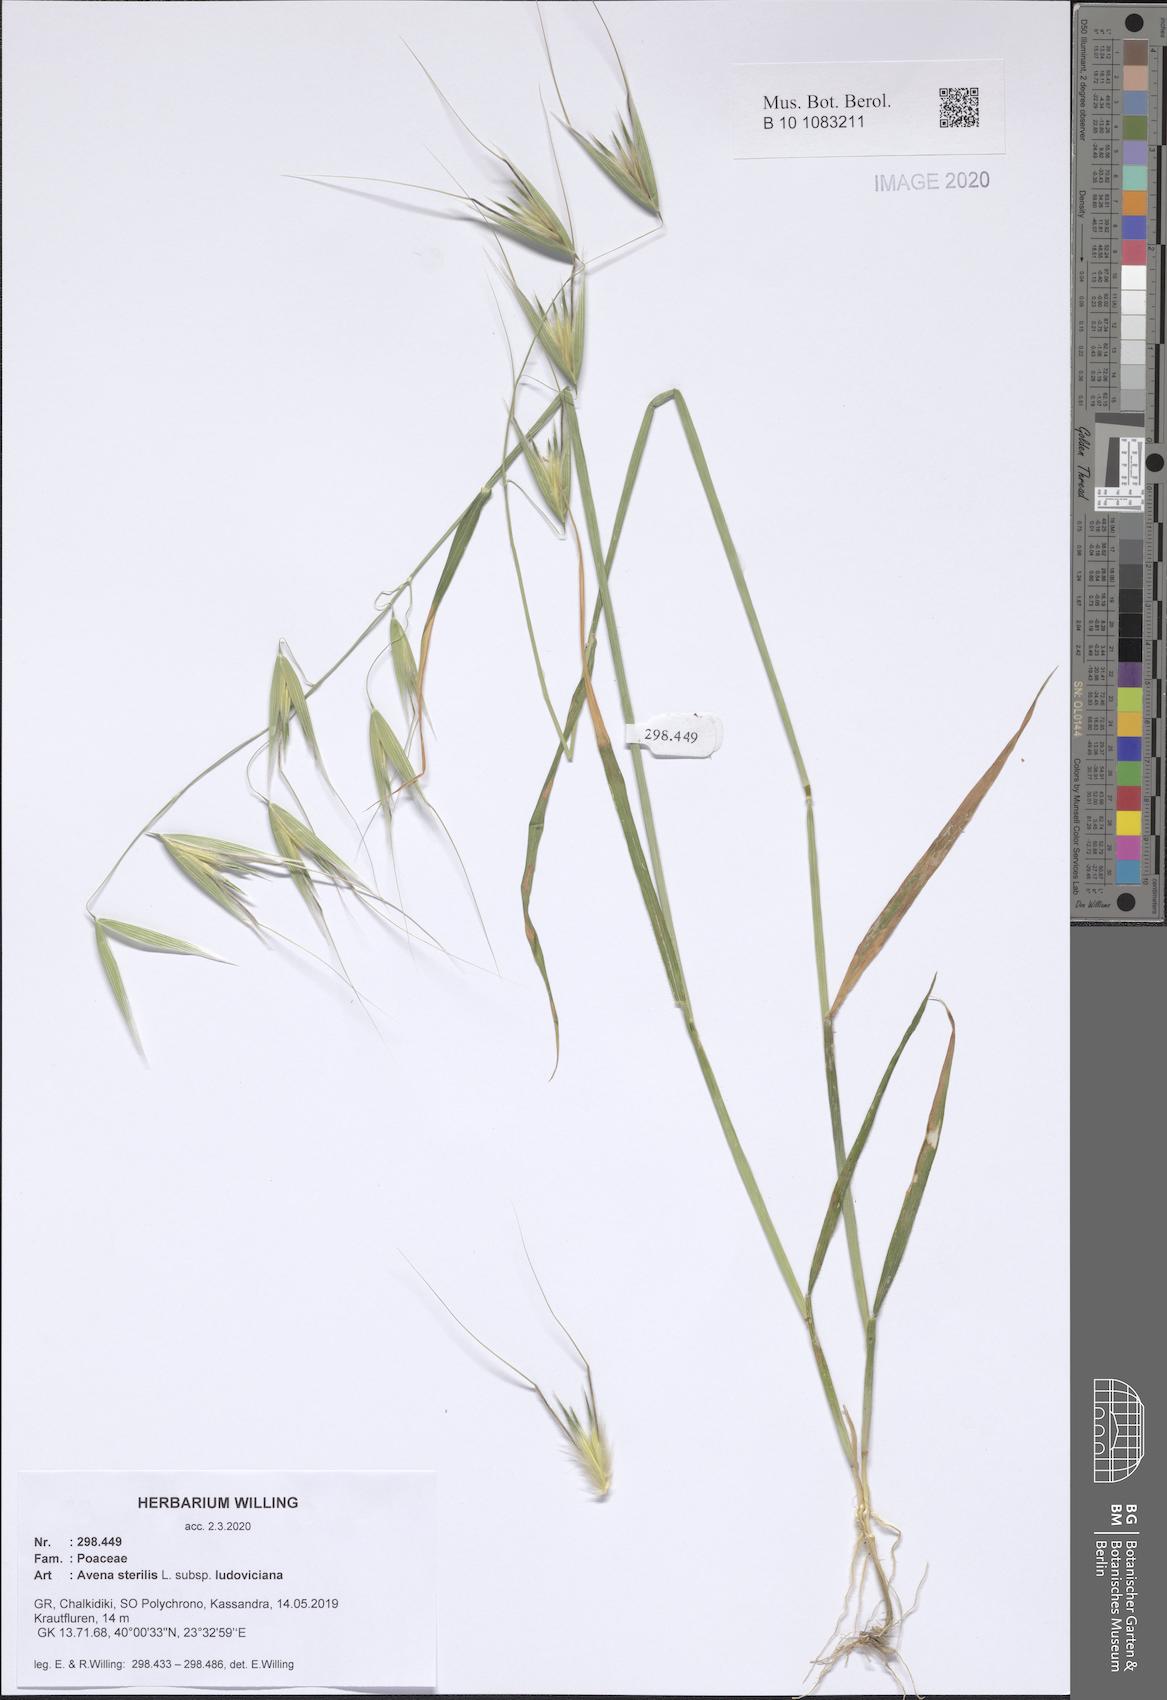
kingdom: Plantae
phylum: Tracheophyta
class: Liliopsida
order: Poales
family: Poaceae
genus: Avena
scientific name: Avena sterilis
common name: Animated oat
